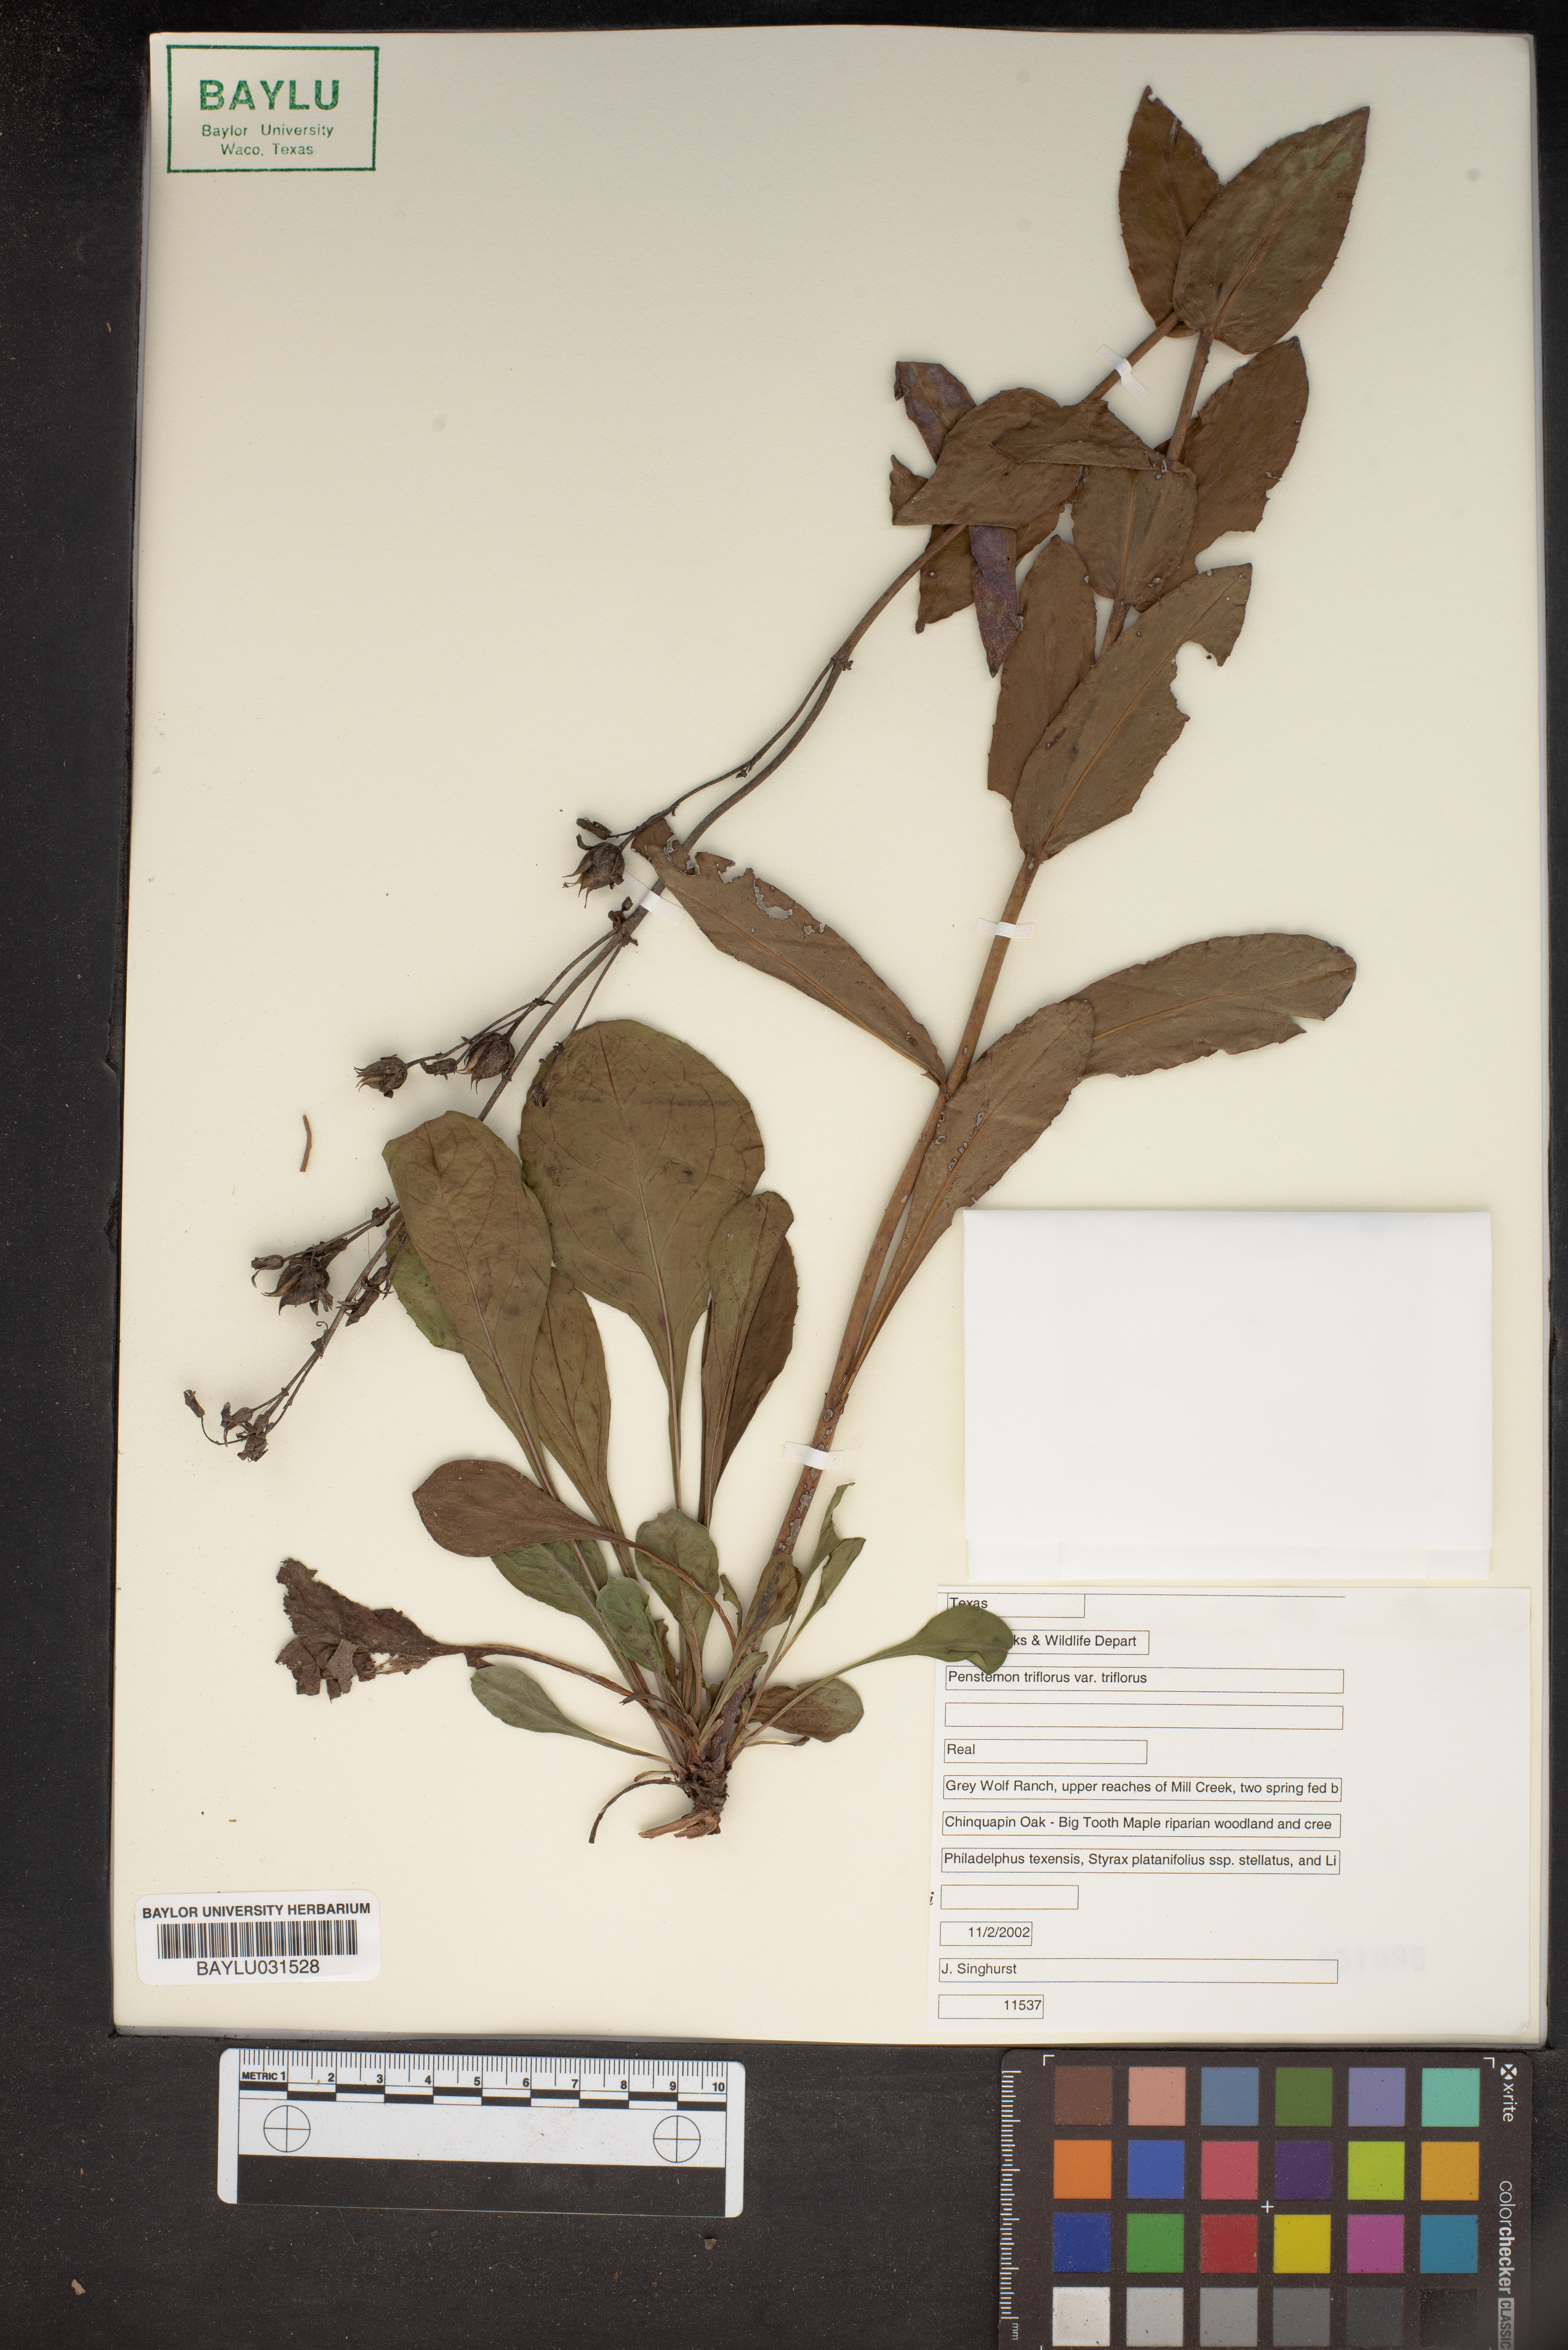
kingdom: Plantae
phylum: Tracheophyta
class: Magnoliopsida
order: Lamiales
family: Plantaginaceae
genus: Penstemon
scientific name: Penstemon triflorus
